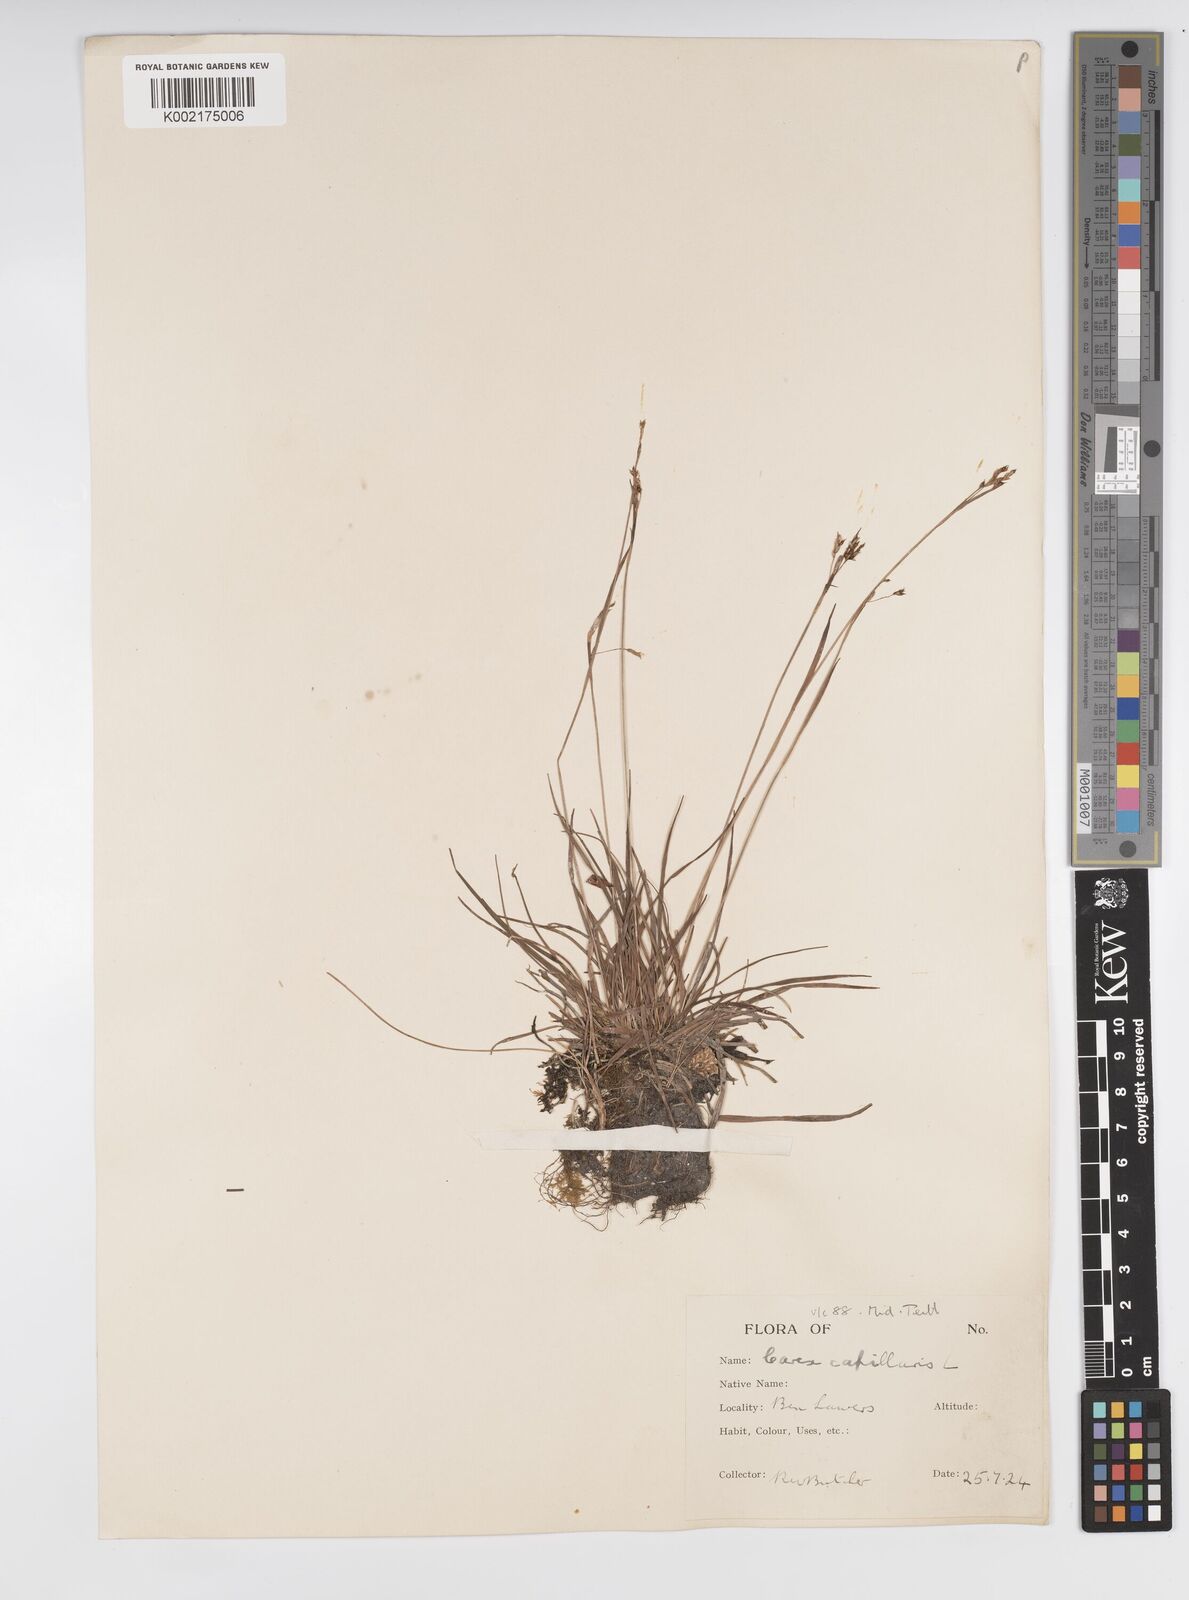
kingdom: Plantae
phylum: Tracheophyta
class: Liliopsida
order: Poales
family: Cyperaceae
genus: Carex
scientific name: Carex capillaris
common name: Hair sedge
